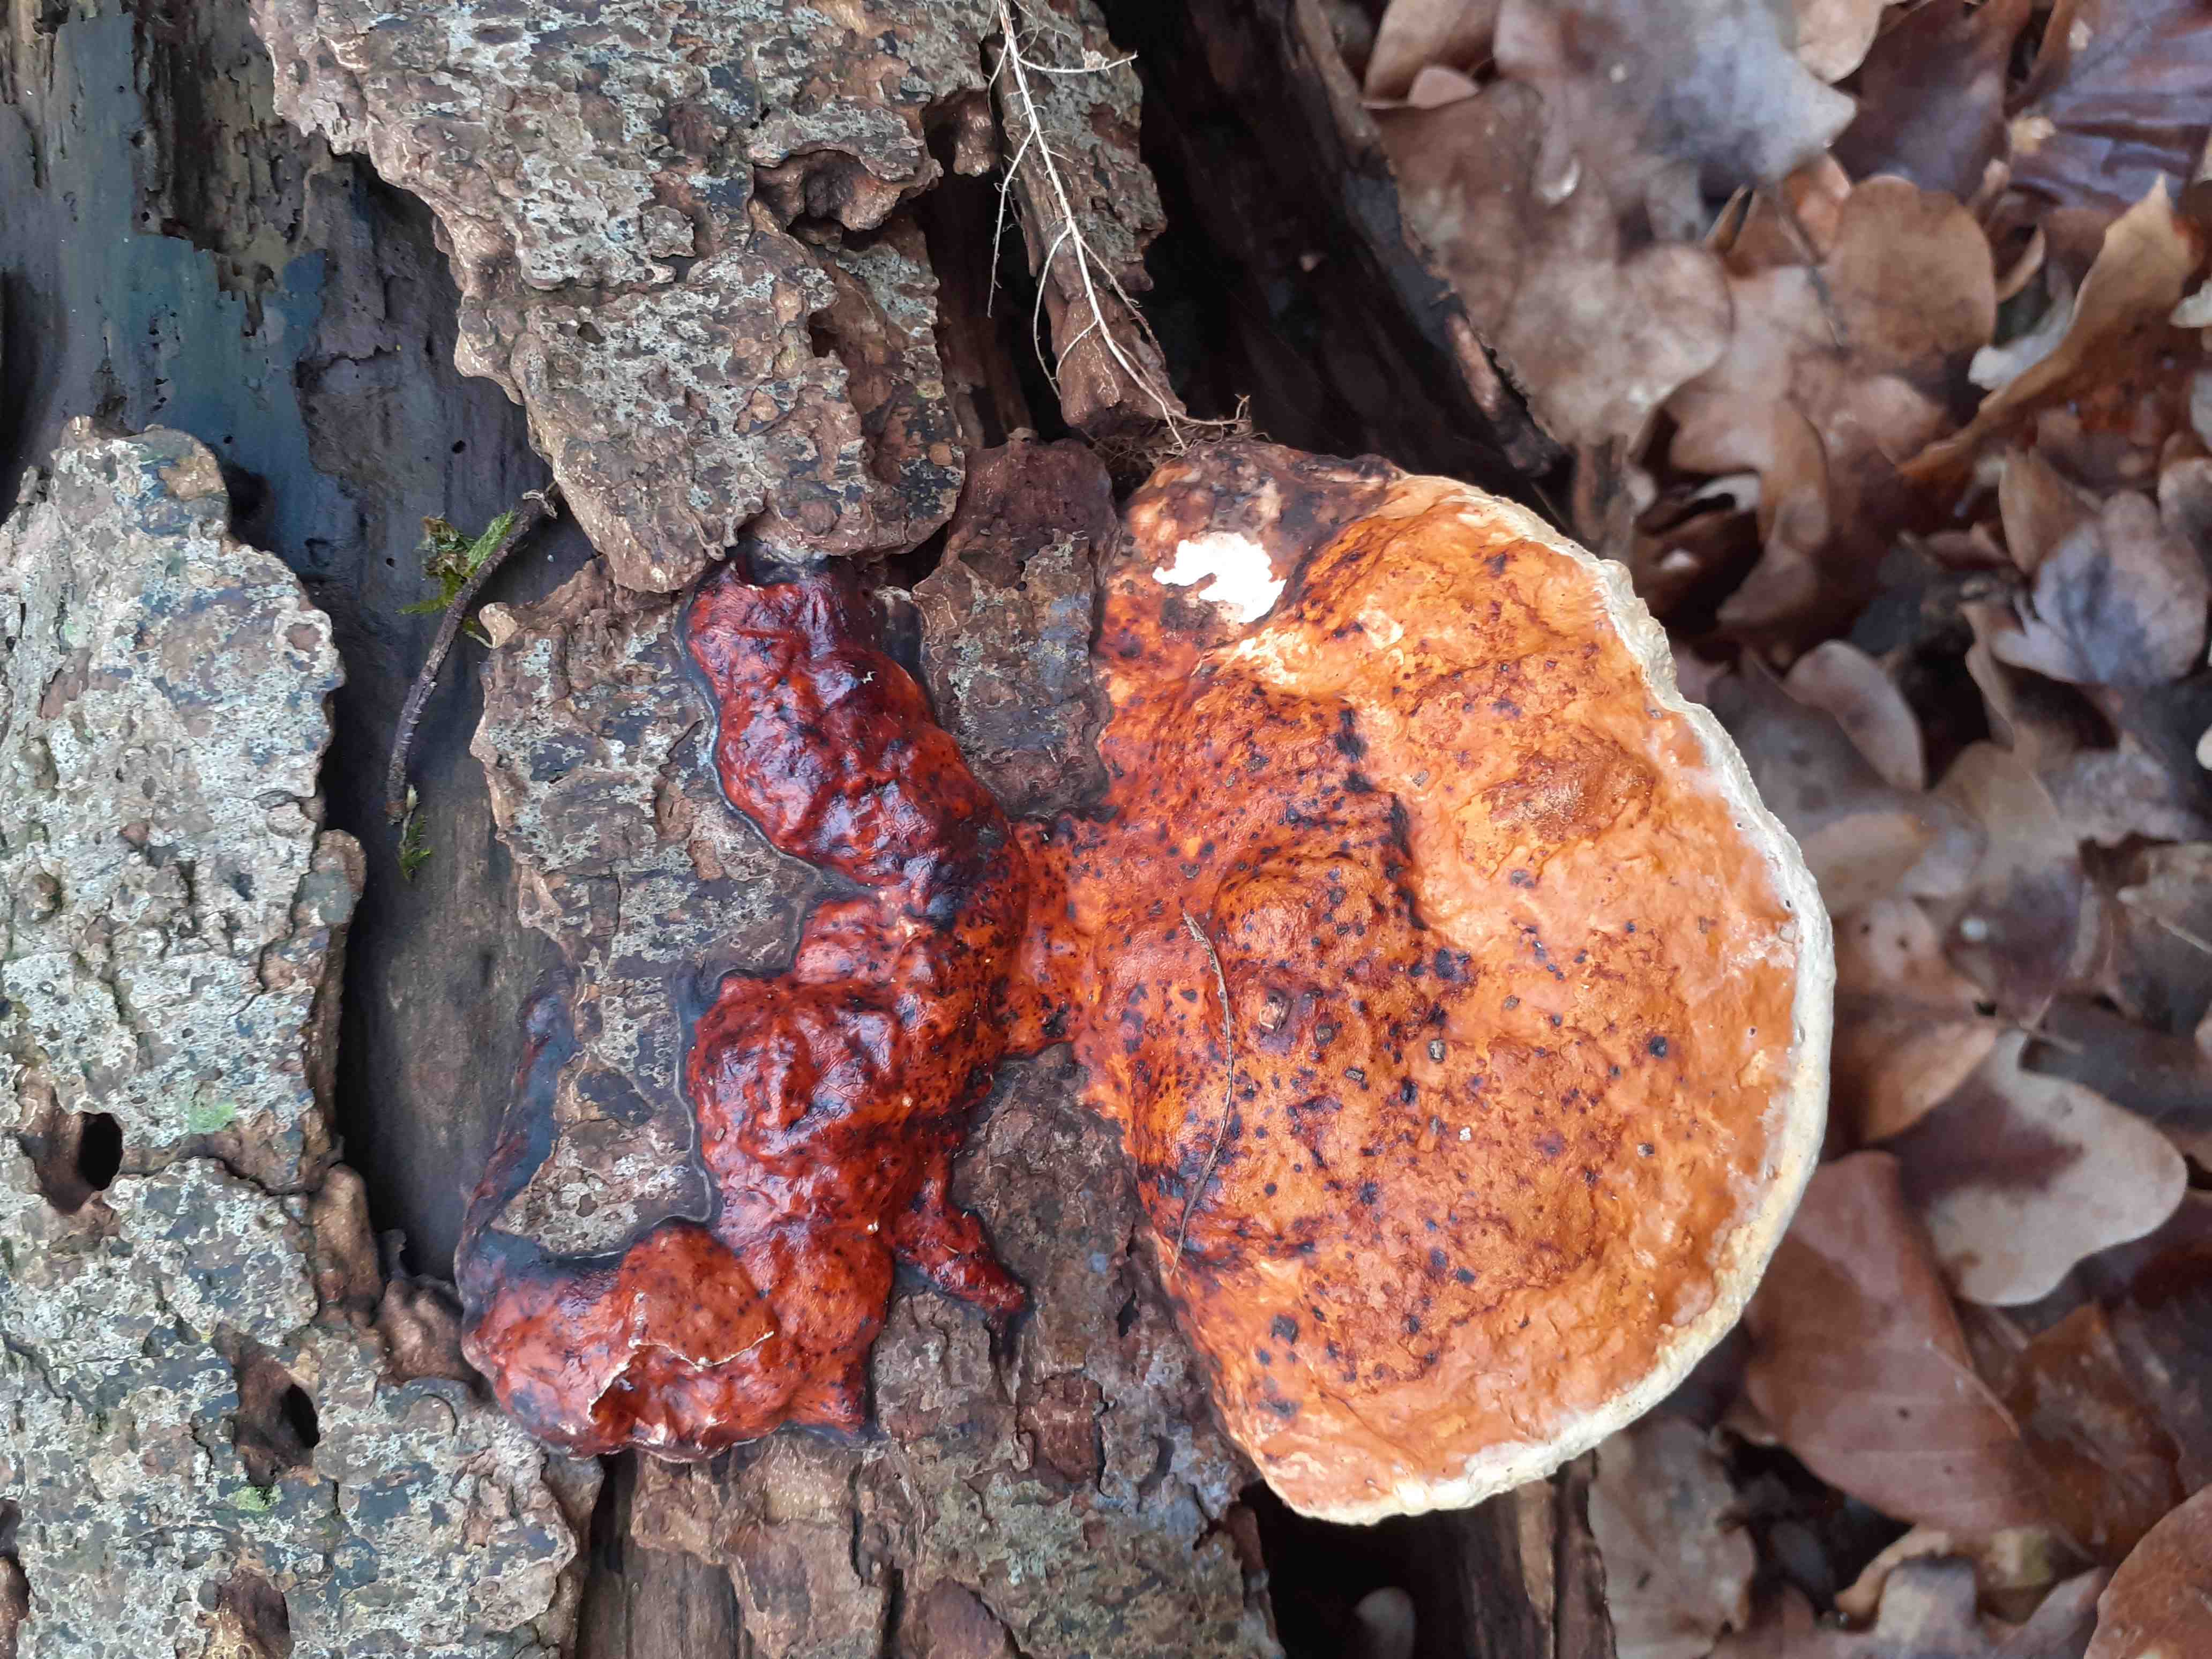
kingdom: Fungi
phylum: Basidiomycota
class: Agaricomycetes
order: Polyporales
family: Fomitopsidaceae
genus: Fomitopsis
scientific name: Fomitopsis pinicola
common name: randbæltet hovporesvamp
